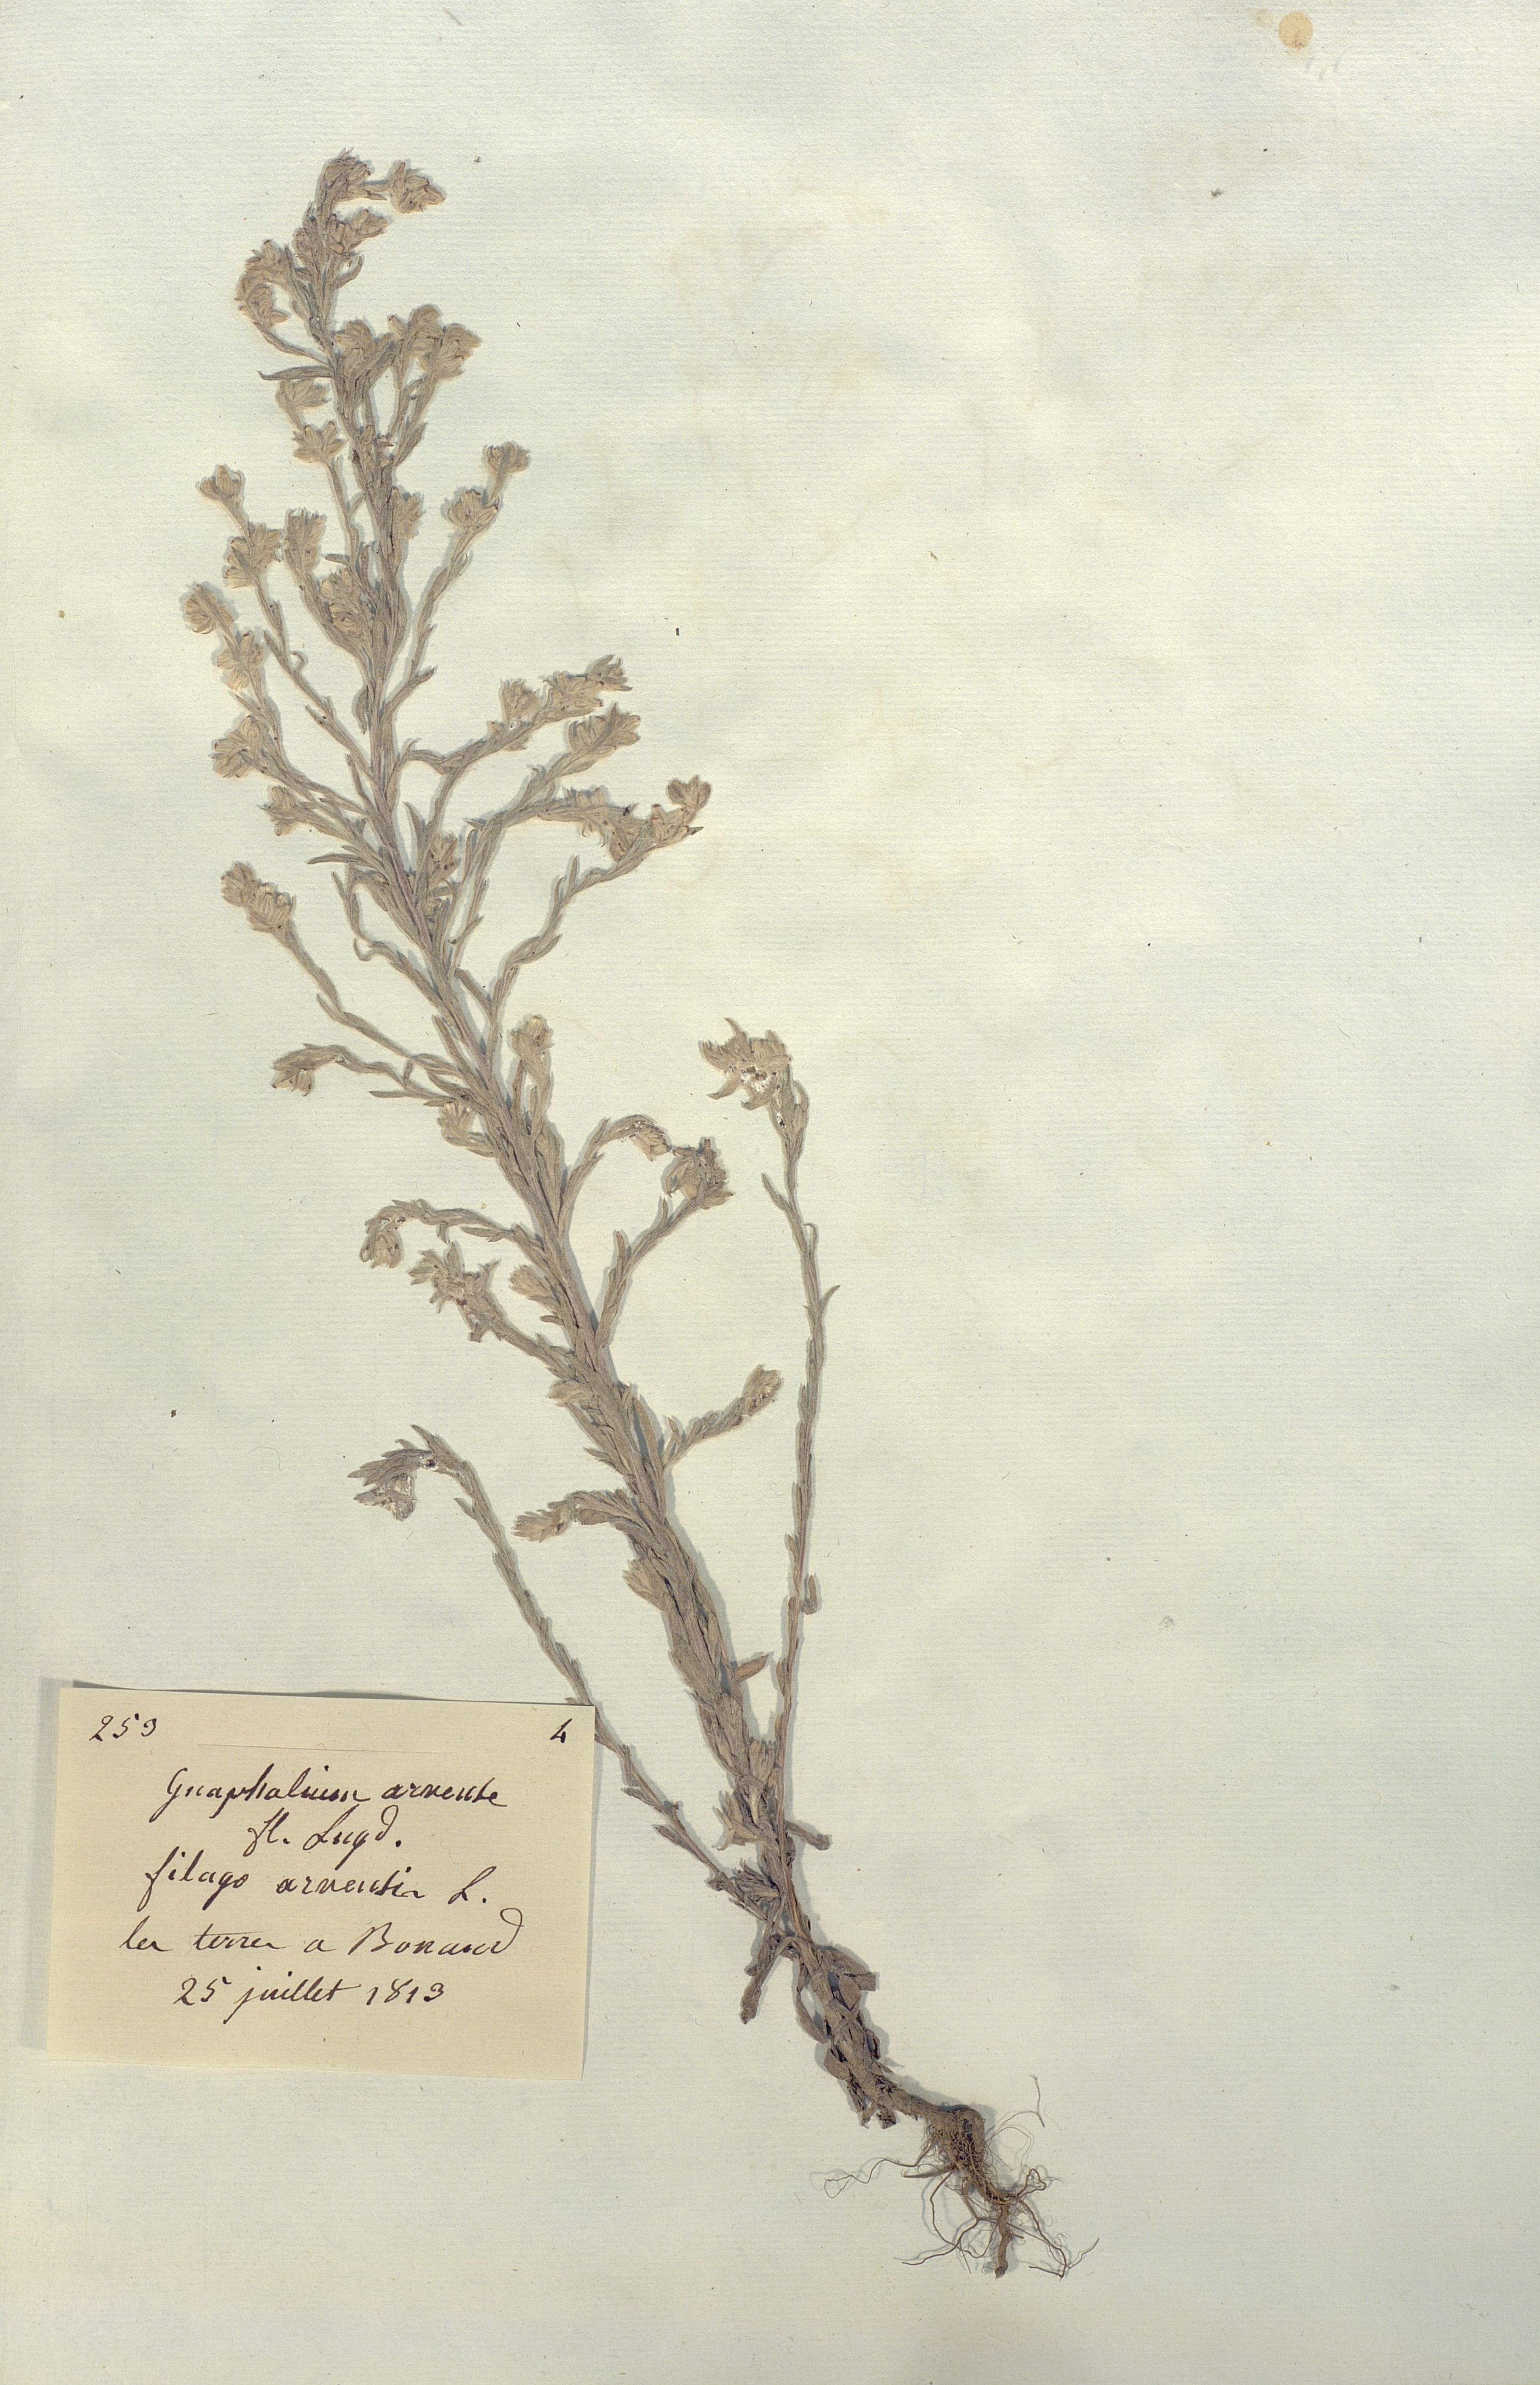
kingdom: Plantae
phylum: Tracheophyta
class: Magnoliopsida
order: Asterales
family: Asteraceae
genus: Filago
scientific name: Filago arvensis
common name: Field cudweed
